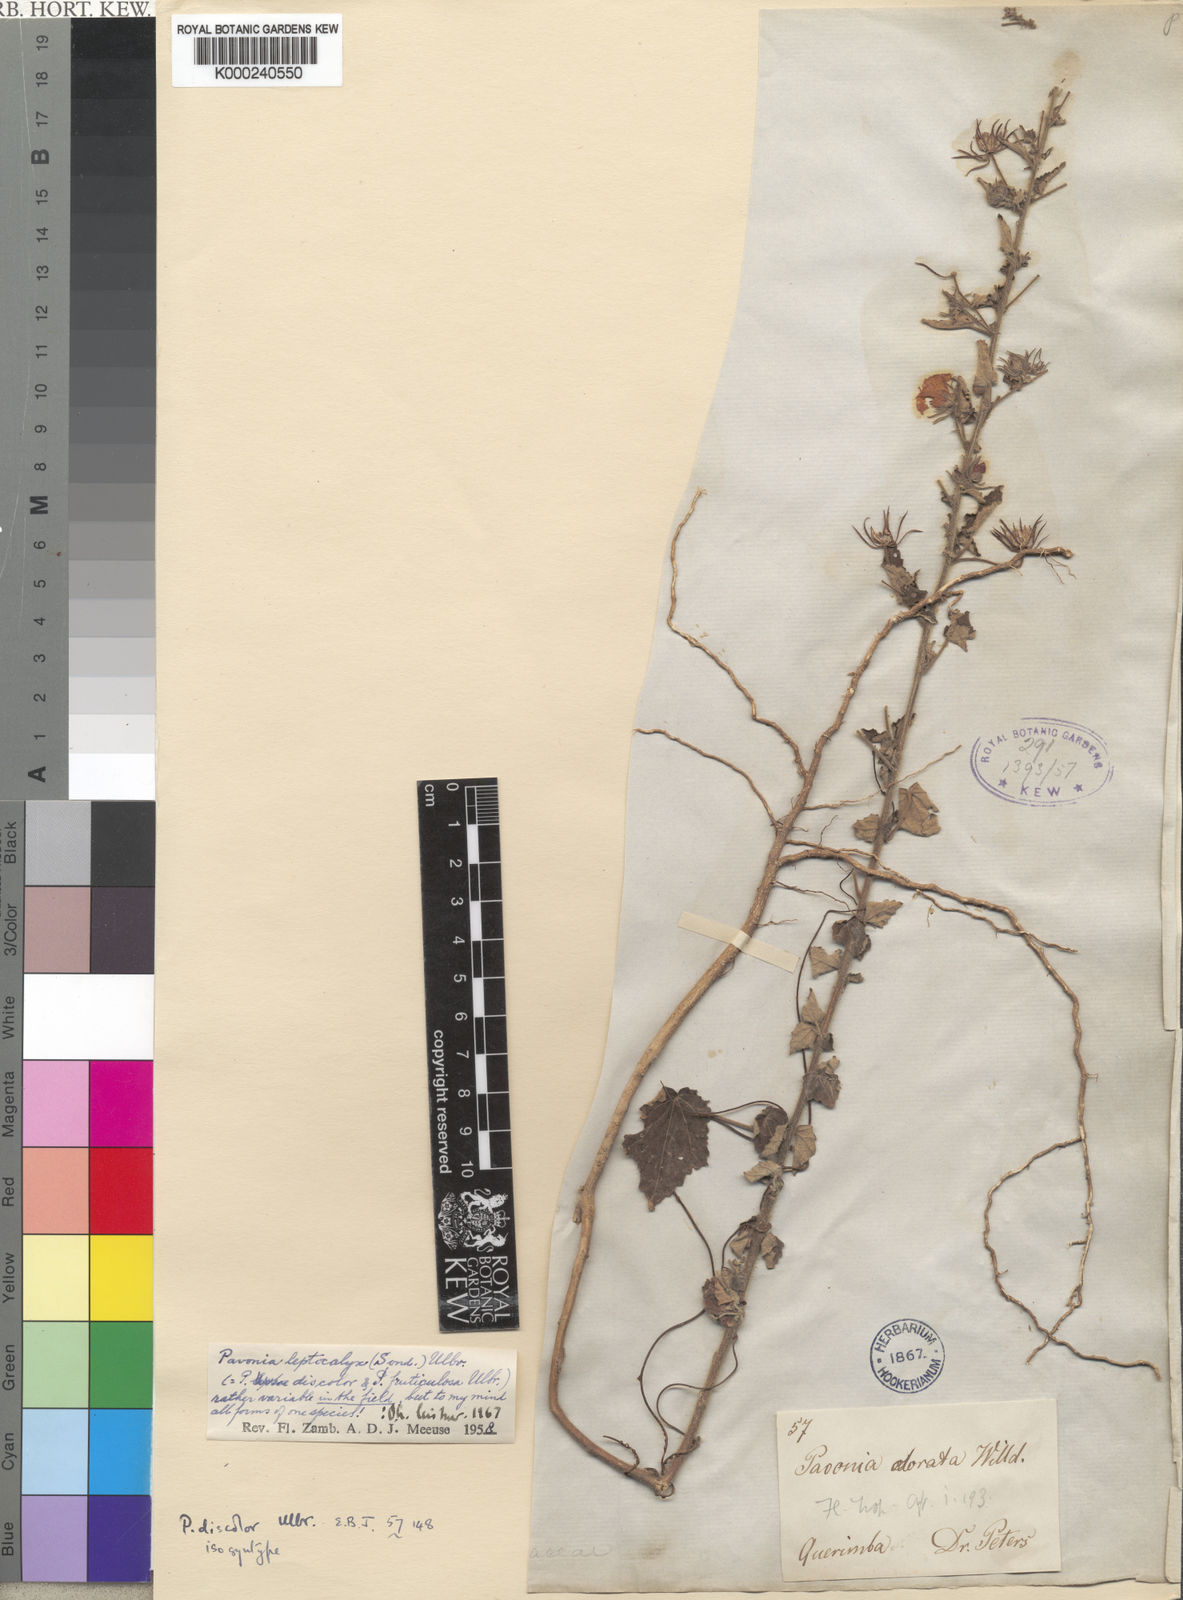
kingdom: Plantae
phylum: Tracheophyta
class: Magnoliopsida
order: Malvales
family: Malvaceae
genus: Pavonia
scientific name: Pavonia leptocalyx
